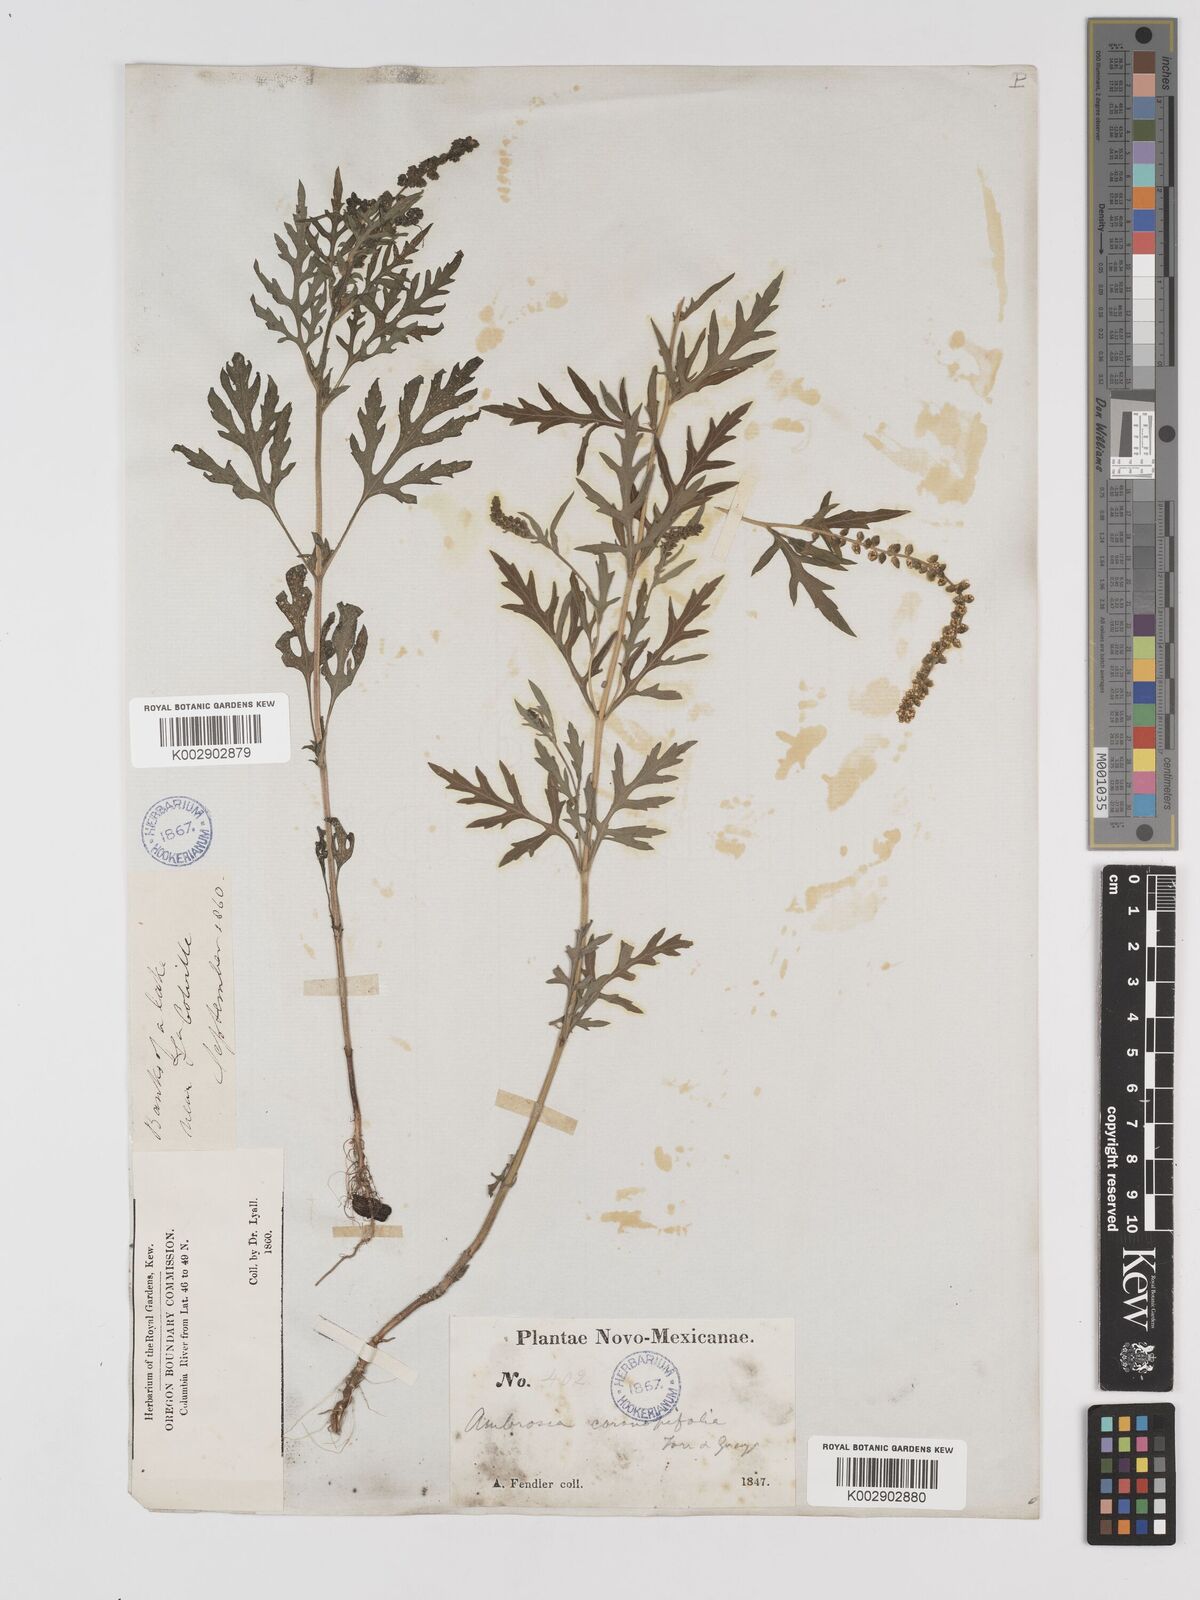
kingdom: Plantae
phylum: Tracheophyta
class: Magnoliopsida
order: Asterales
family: Asteraceae
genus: Ambrosia
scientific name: Ambrosia psilostachya
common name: Perennial ragweed
